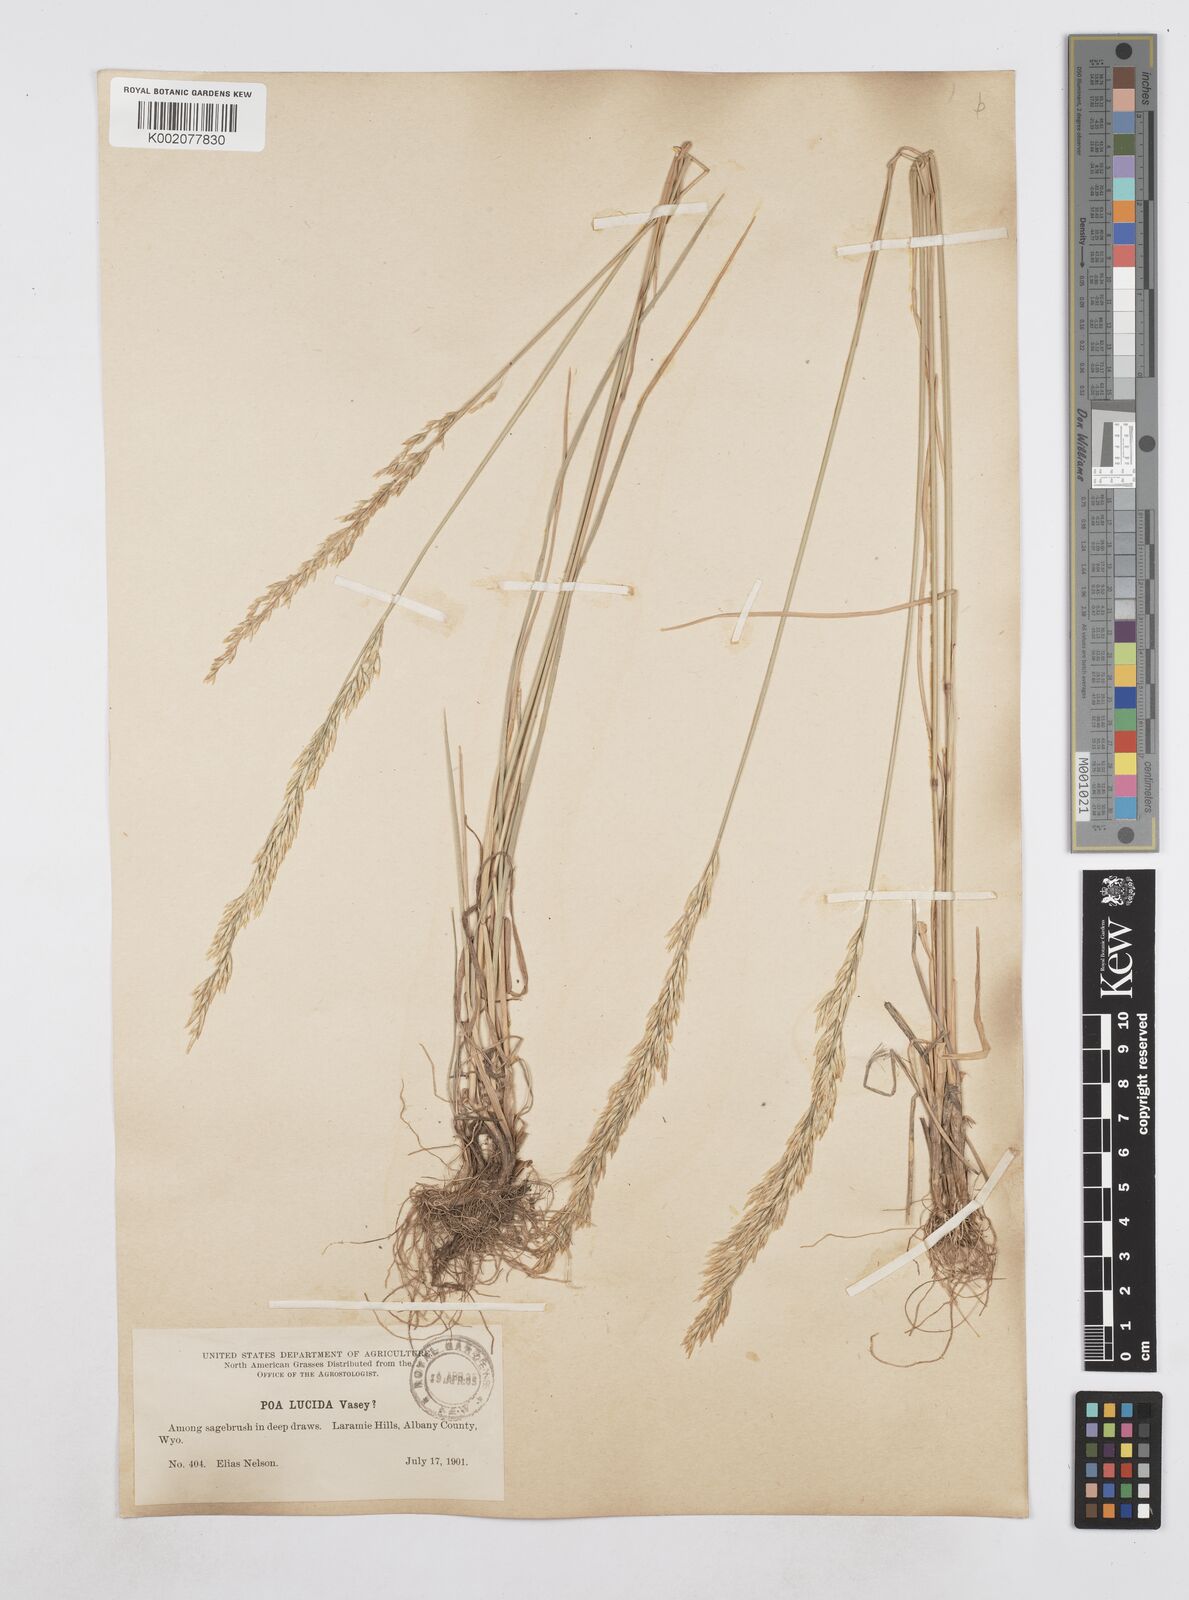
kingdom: Plantae
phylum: Tracheophyta
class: Liliopsida
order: Poales
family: Poaceae
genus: Poa
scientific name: Poa secunda
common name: Sandberg bluegrass
